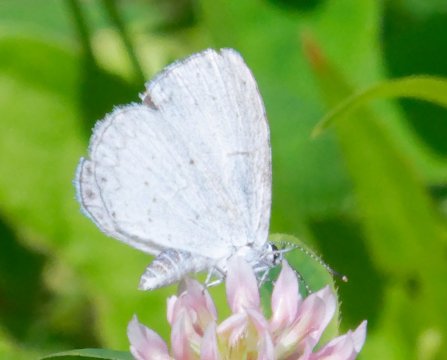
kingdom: Animalia
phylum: Arthropoda
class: Insecta
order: Lepidoptera
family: Lycaenidae
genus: Cyaniris
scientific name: Cyaniris neglecta
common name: Summer Azure
